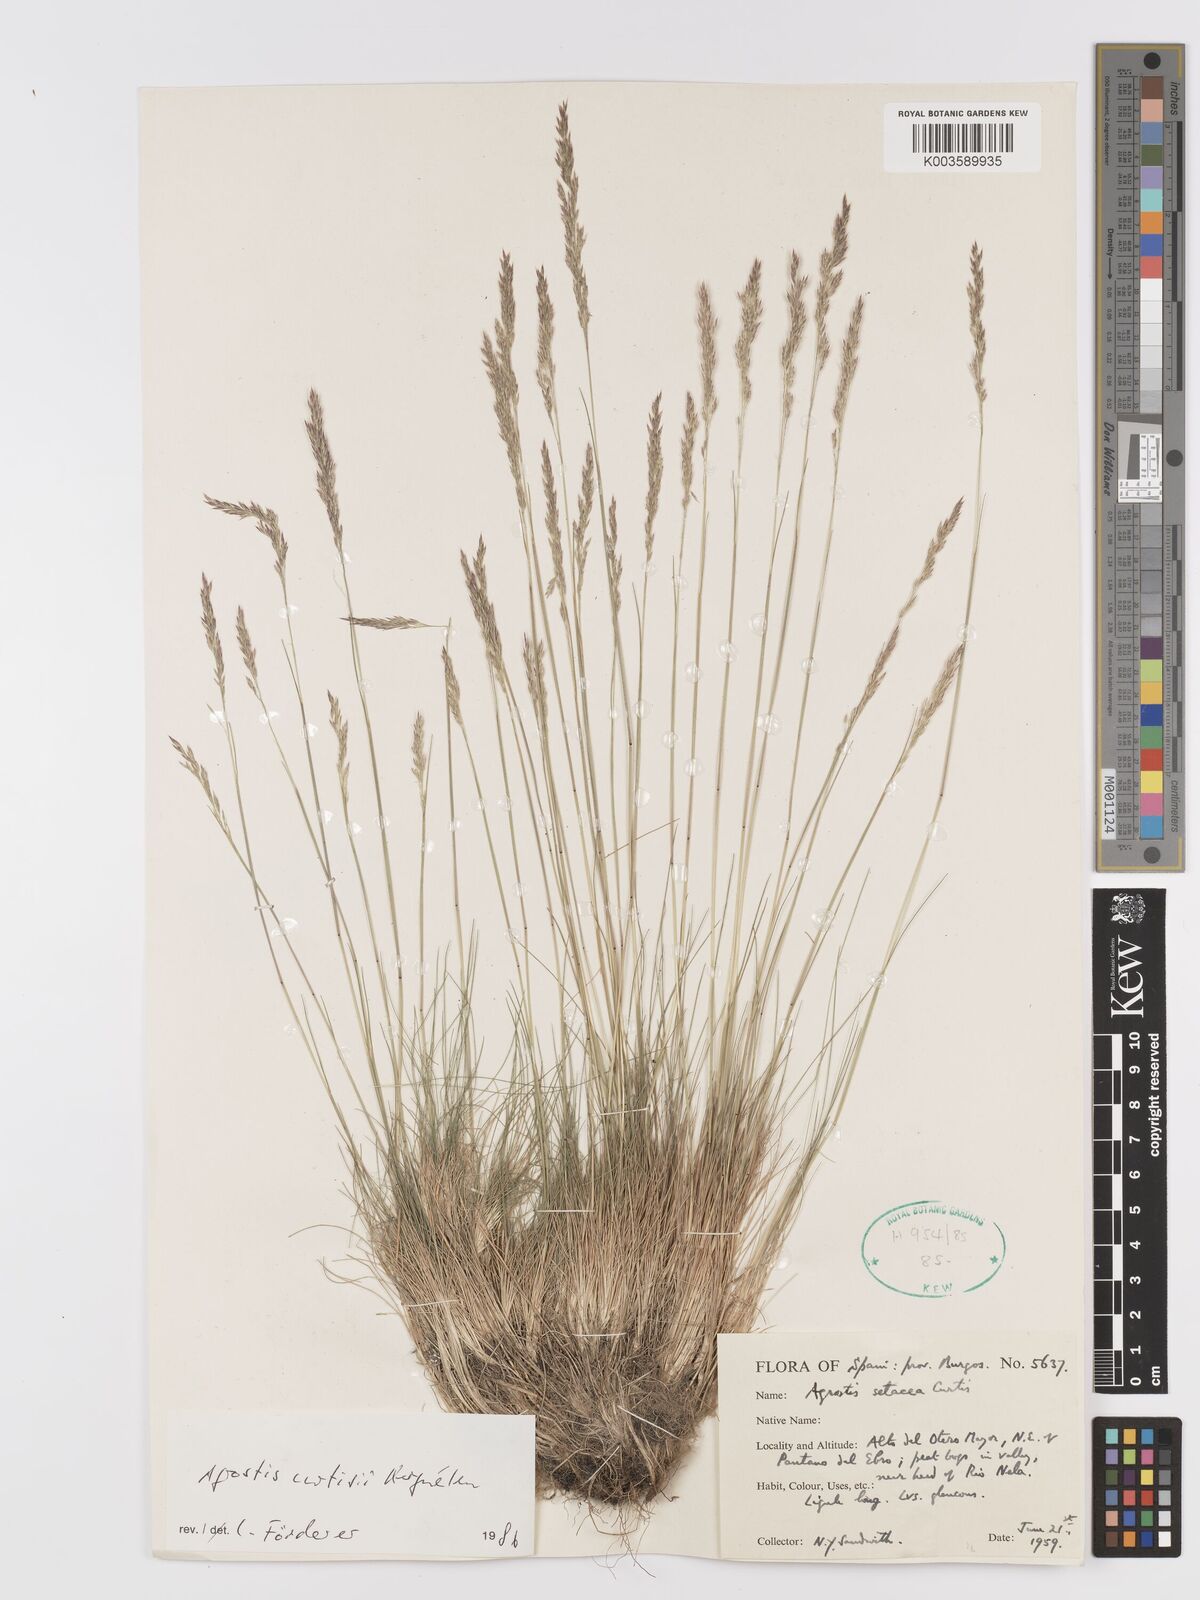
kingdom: Plantae
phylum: Tracheophyta
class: Liliopsida
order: Poales
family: Poaceae
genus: Alpagrostis
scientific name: Alpagrostis setacea
